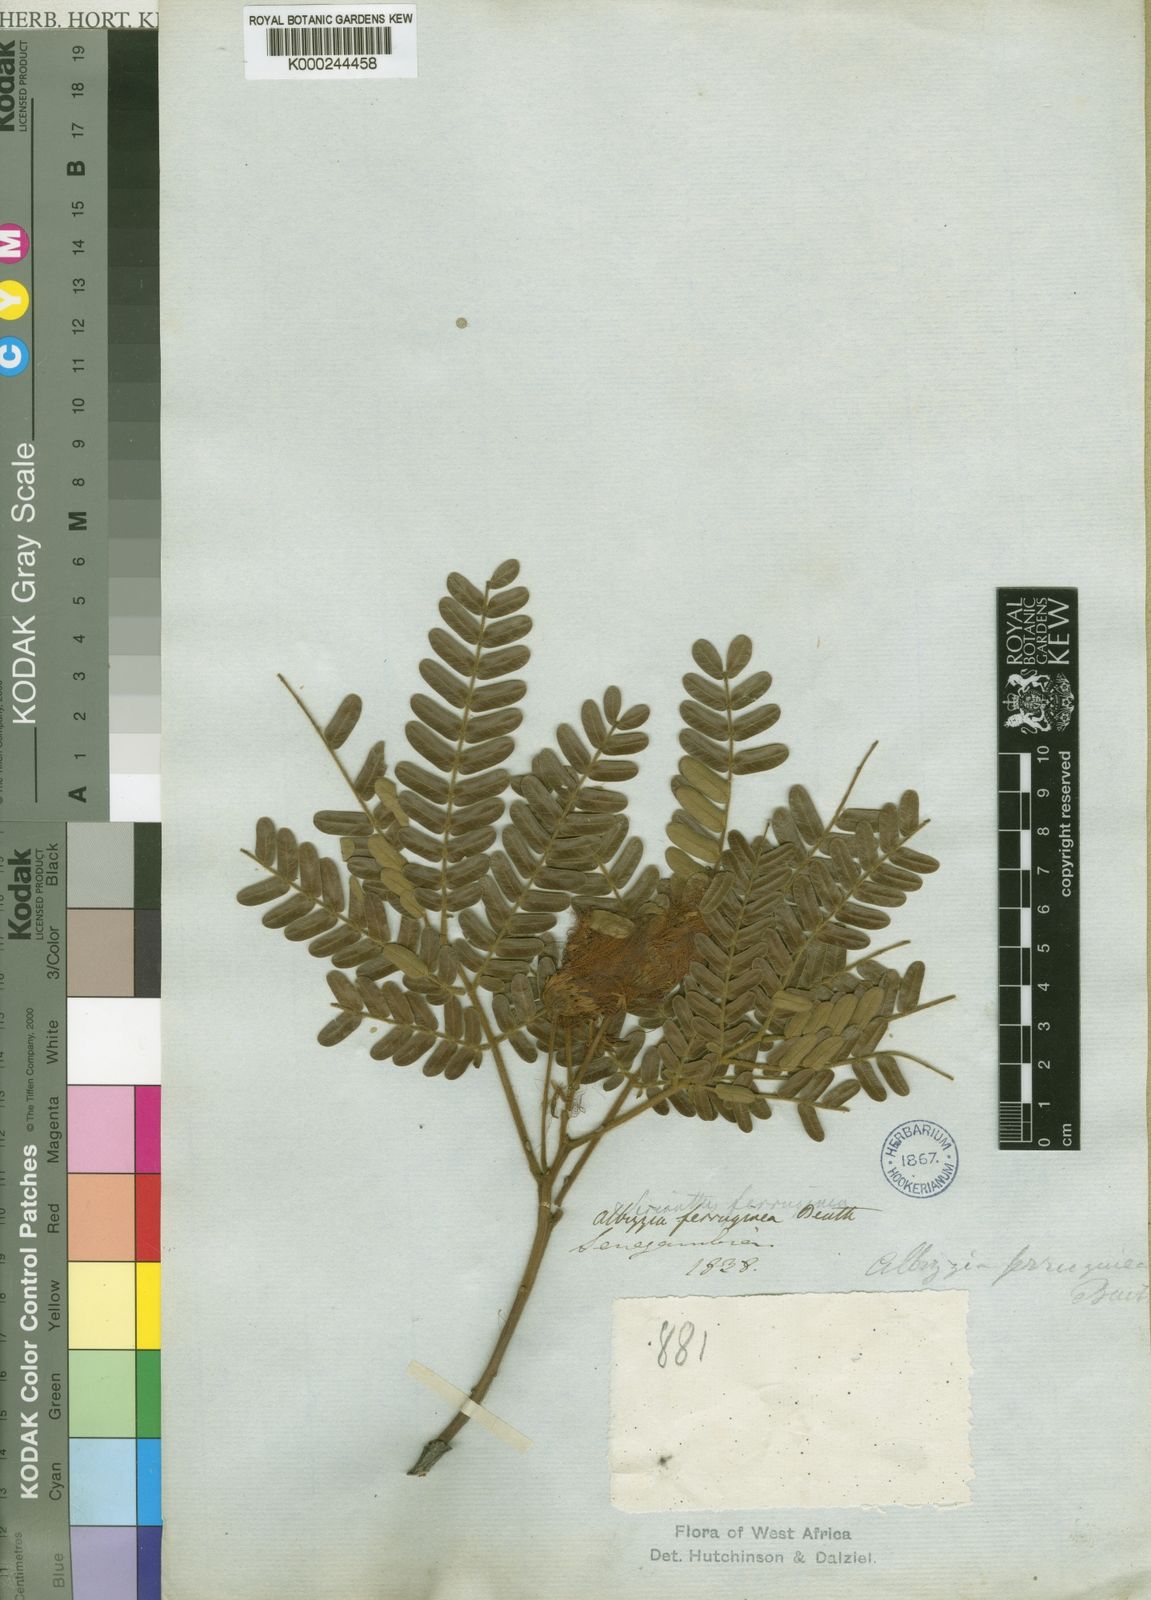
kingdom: Plantae
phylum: Tracheophyta
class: Magnoliopsida
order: Fabales
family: Fabaceae
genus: Albizia
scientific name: Albizia ferruginea
